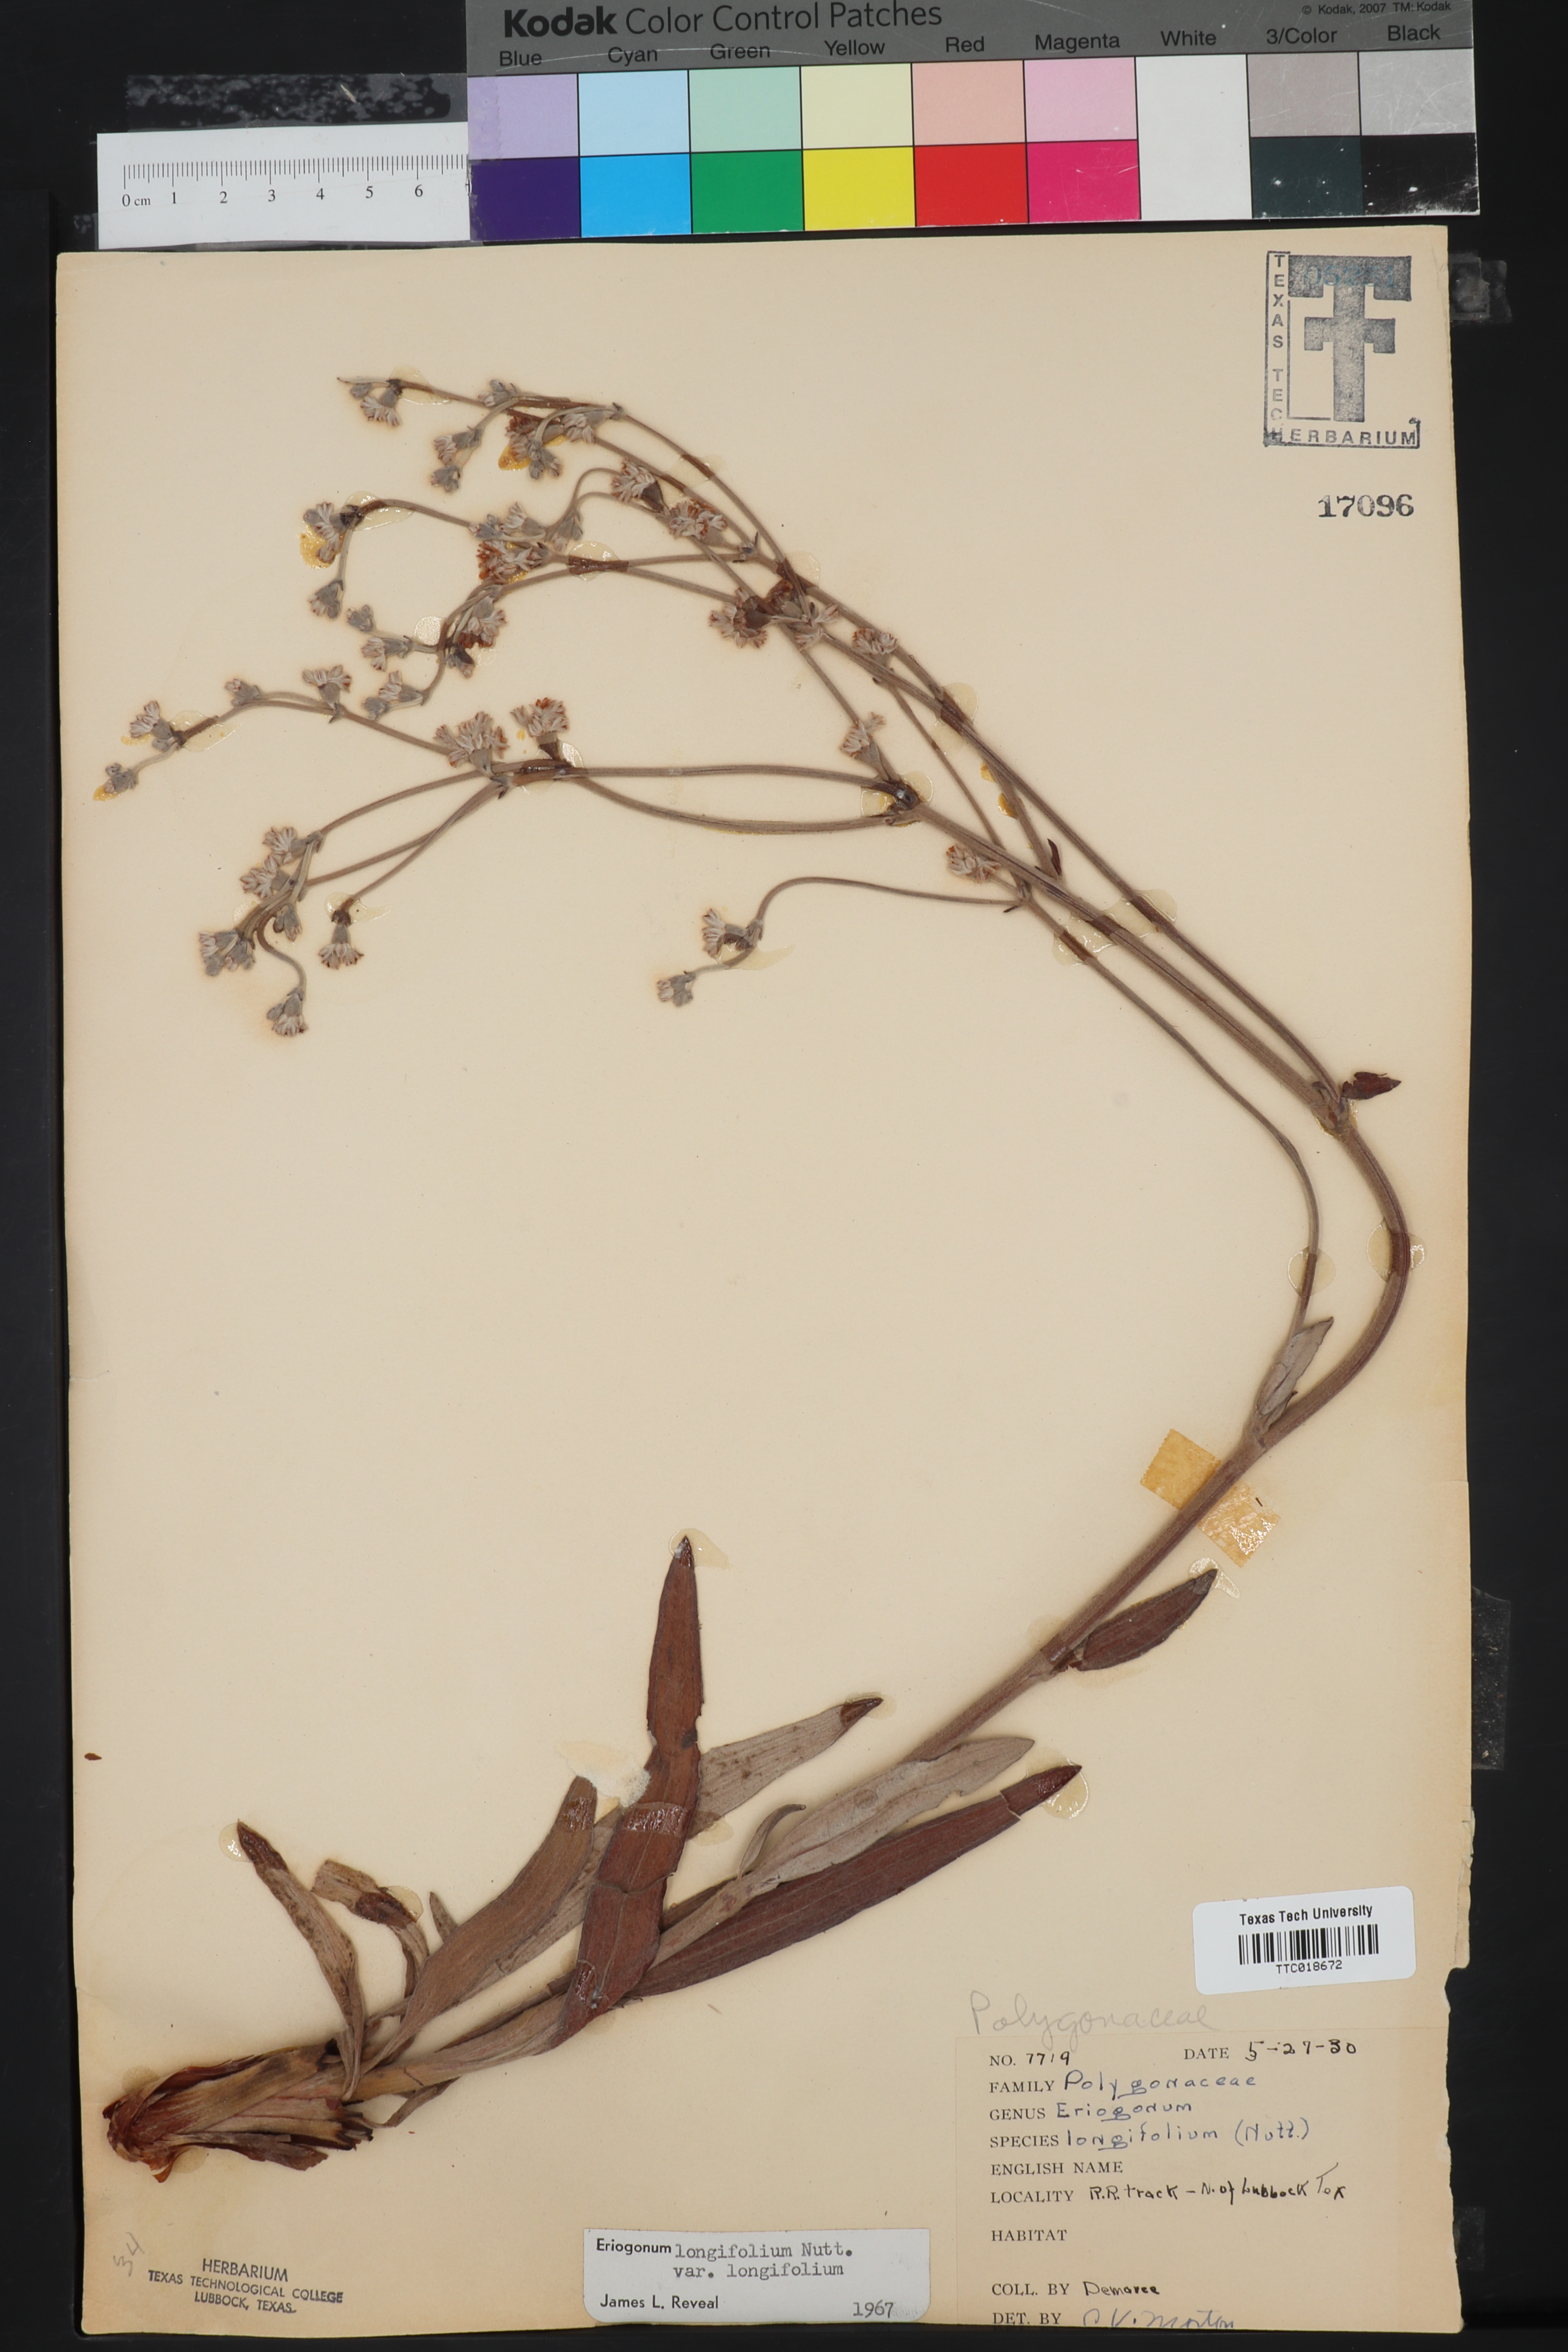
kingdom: Plantae
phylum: Tracheophyta
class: Magnoliopsida
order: Caryophyllales
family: Polygonaceae
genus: Eriogonum
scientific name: Eriogonum longifolium
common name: Longleaf wild buckwheat
